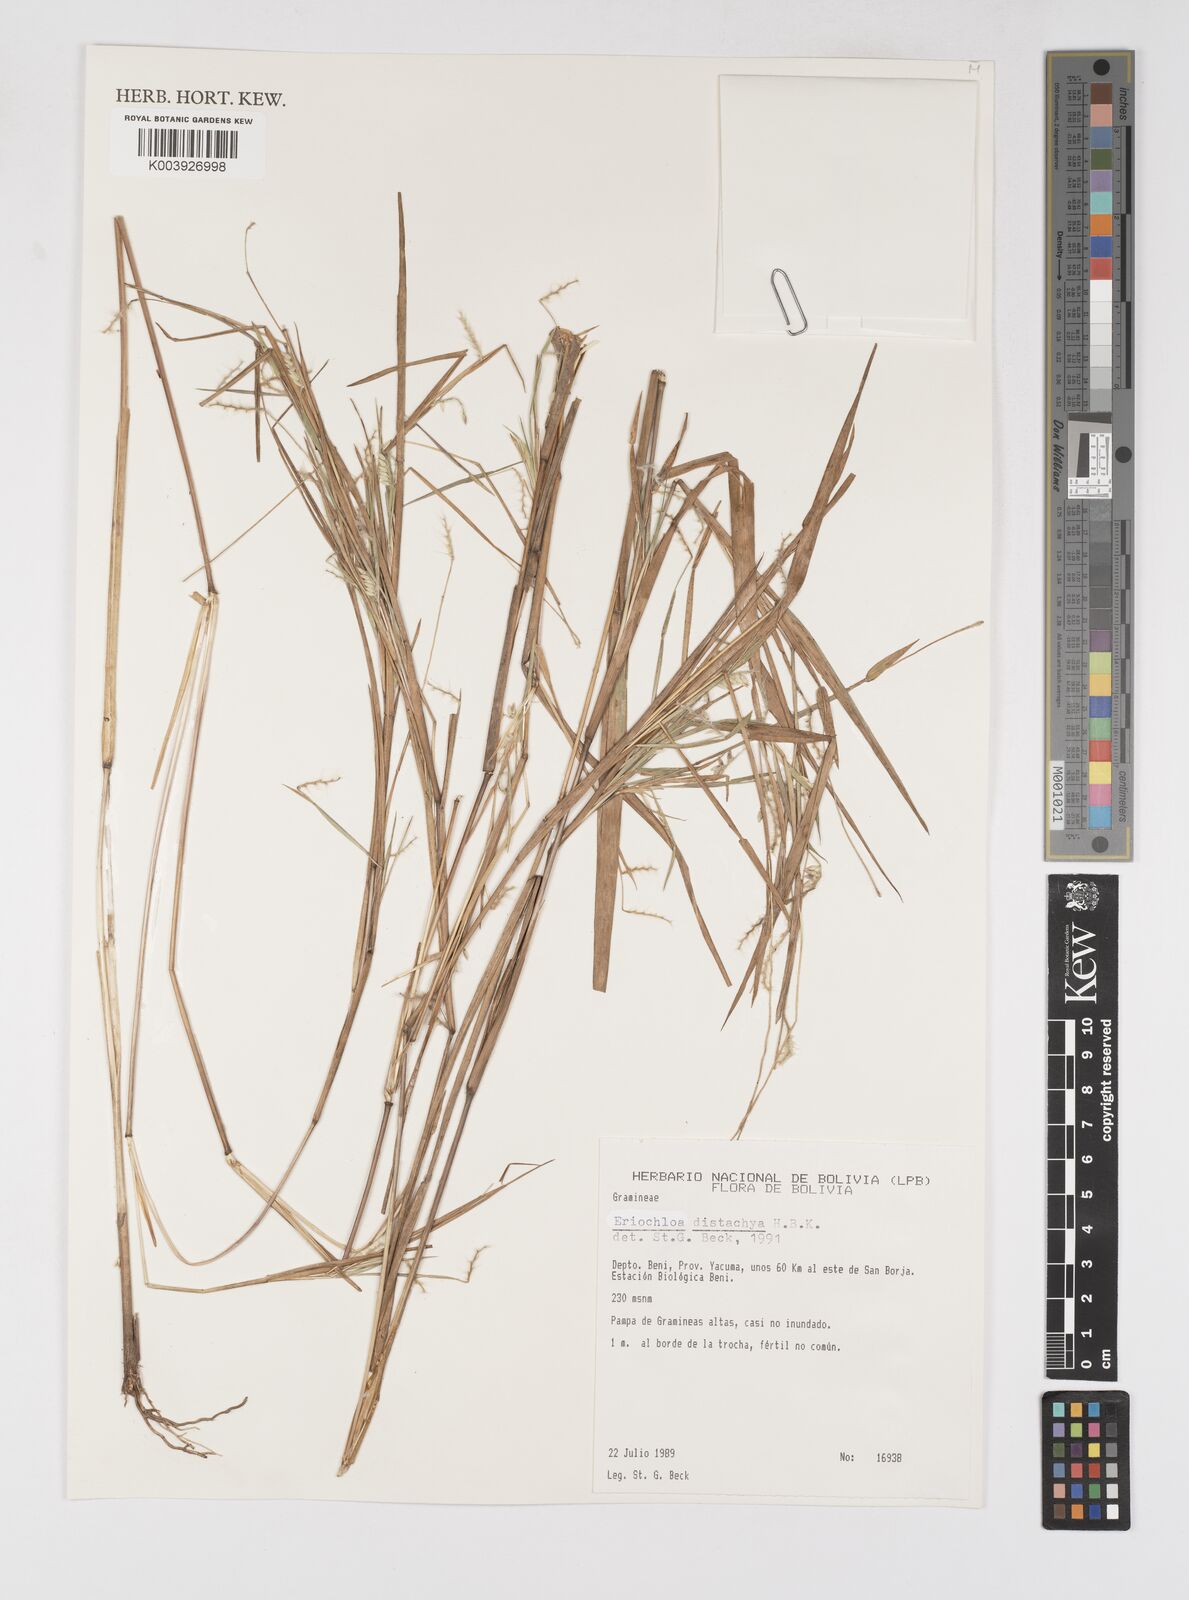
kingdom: Plantae
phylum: Tracheophyta
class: Liliopsida
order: Poales
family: Poaceae
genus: Eriochloa
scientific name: Eriochloa distachya
